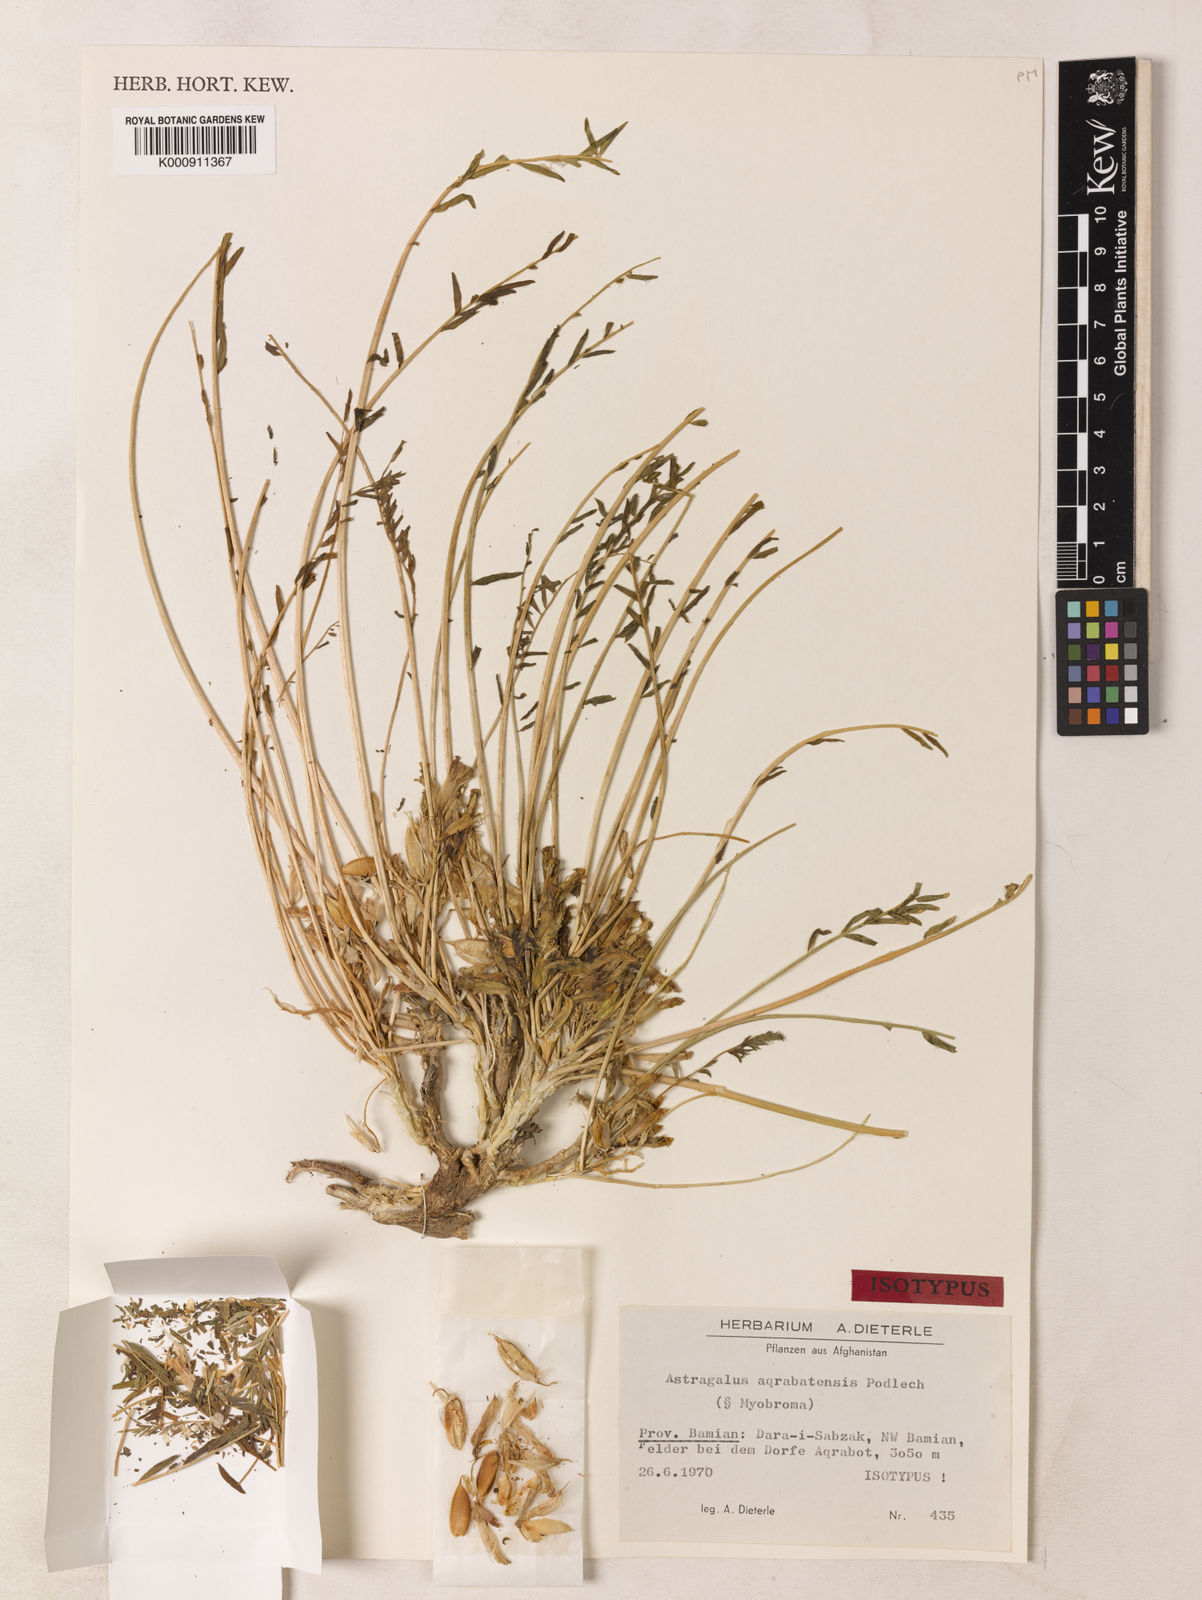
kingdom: Plantae
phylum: Tracheophyta
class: Magnoliopsida
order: Fabales
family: Fabaceae
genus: Astragalus
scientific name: Astragalus aqrabatensis
